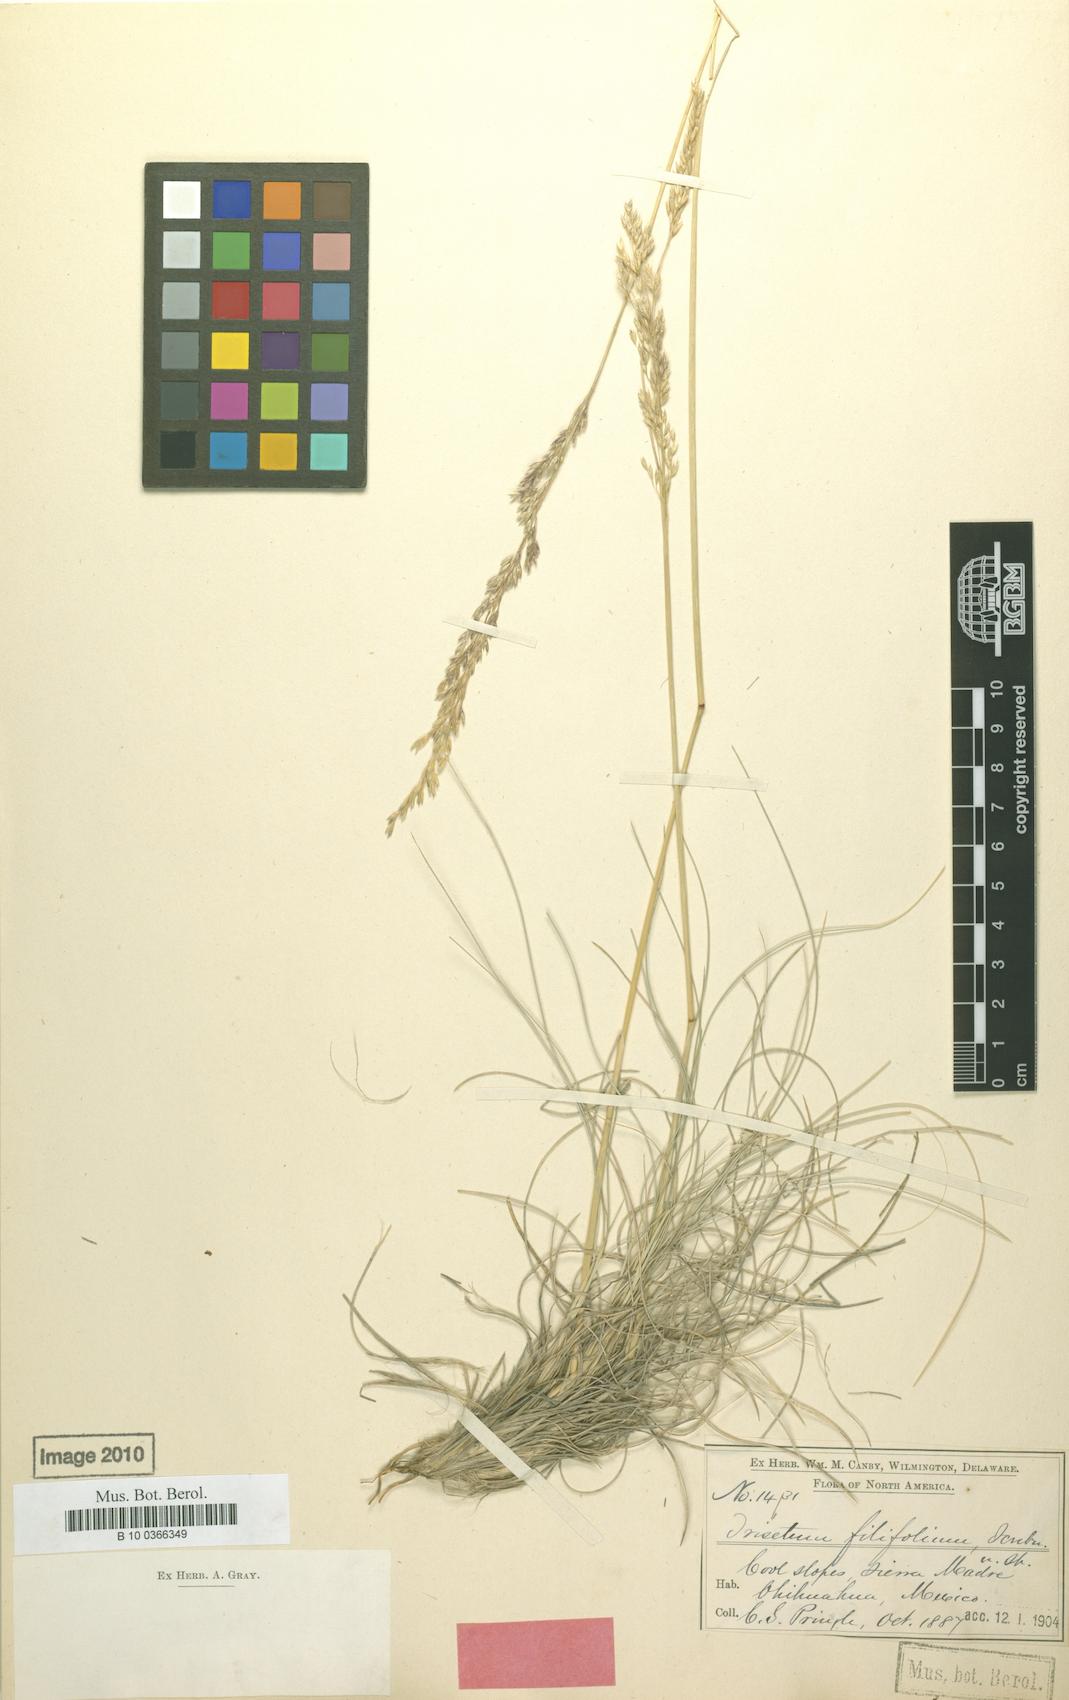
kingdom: Plantae
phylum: Tracheophyta
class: Liliopsida
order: Poales
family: Poaceae
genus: Peyritschia
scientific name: Peyritschia filifolia
